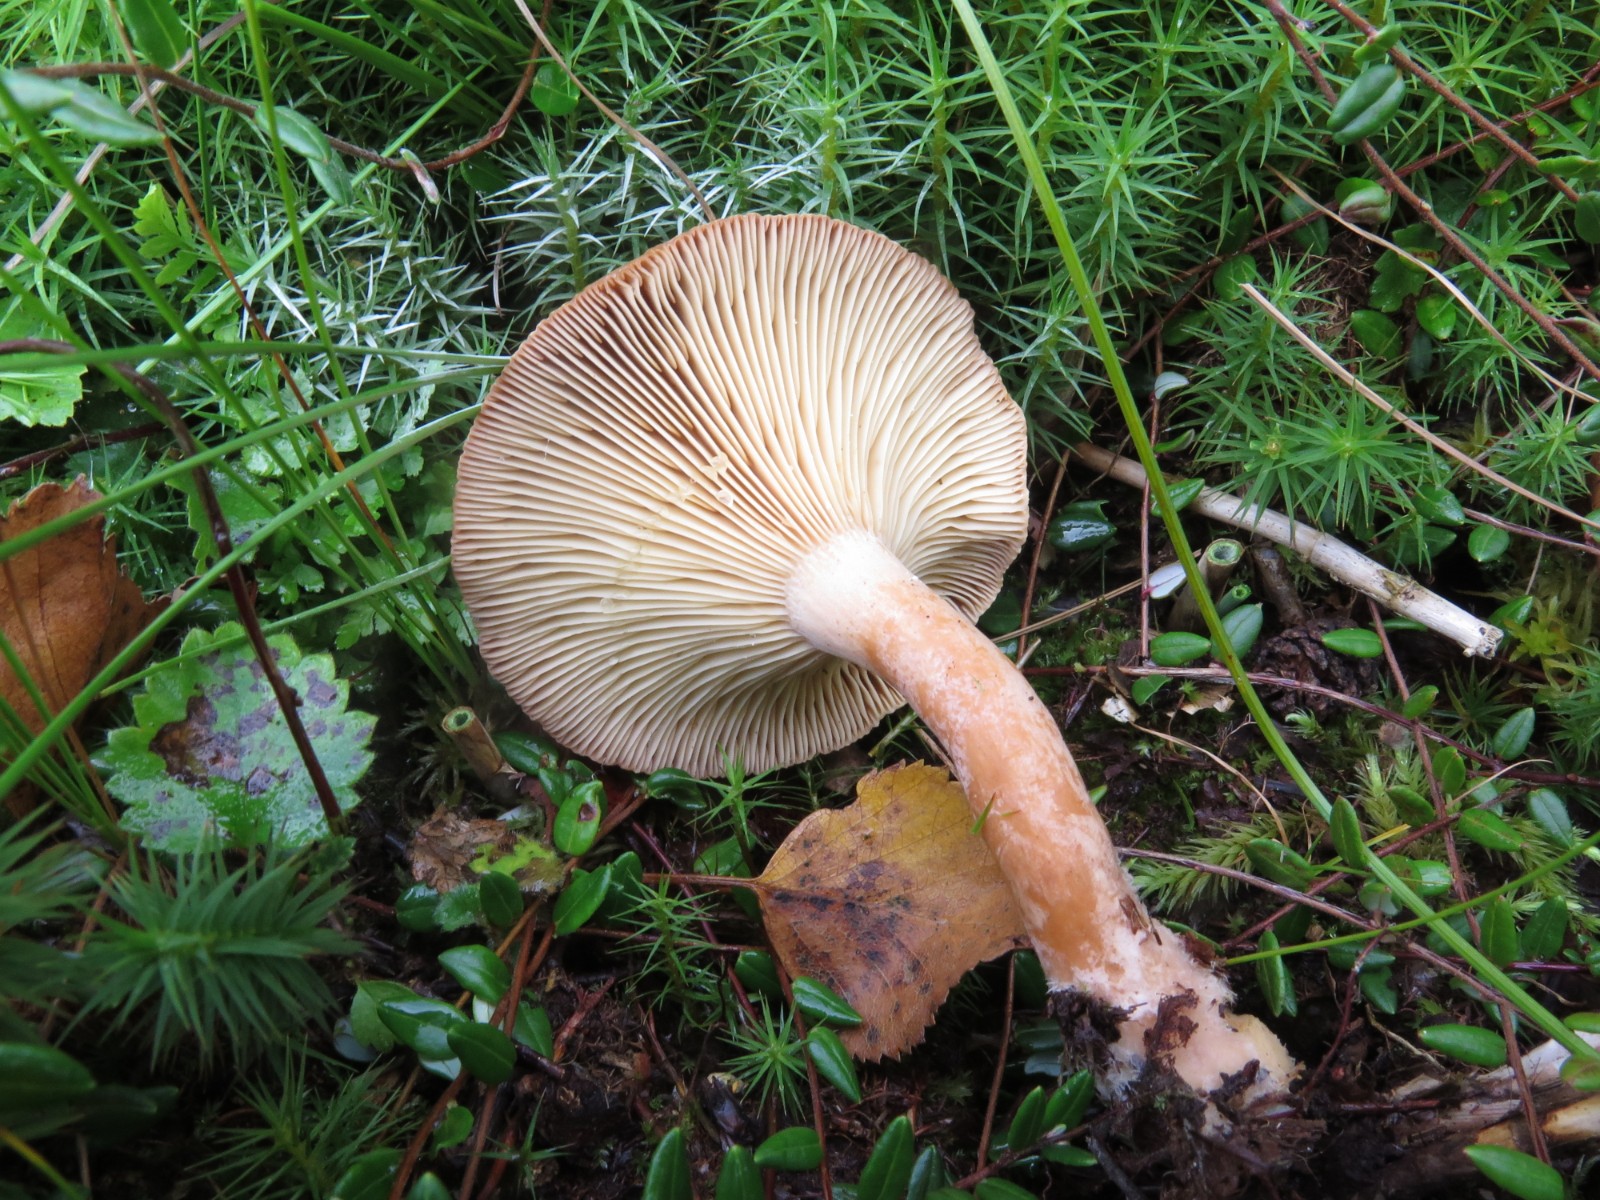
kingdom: Fungi
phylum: Basidiomycota
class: Agaricomycetes
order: Russulales
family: Russulaceae
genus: Lactarius
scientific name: Lactarius helvus
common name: mose-mælkehat
